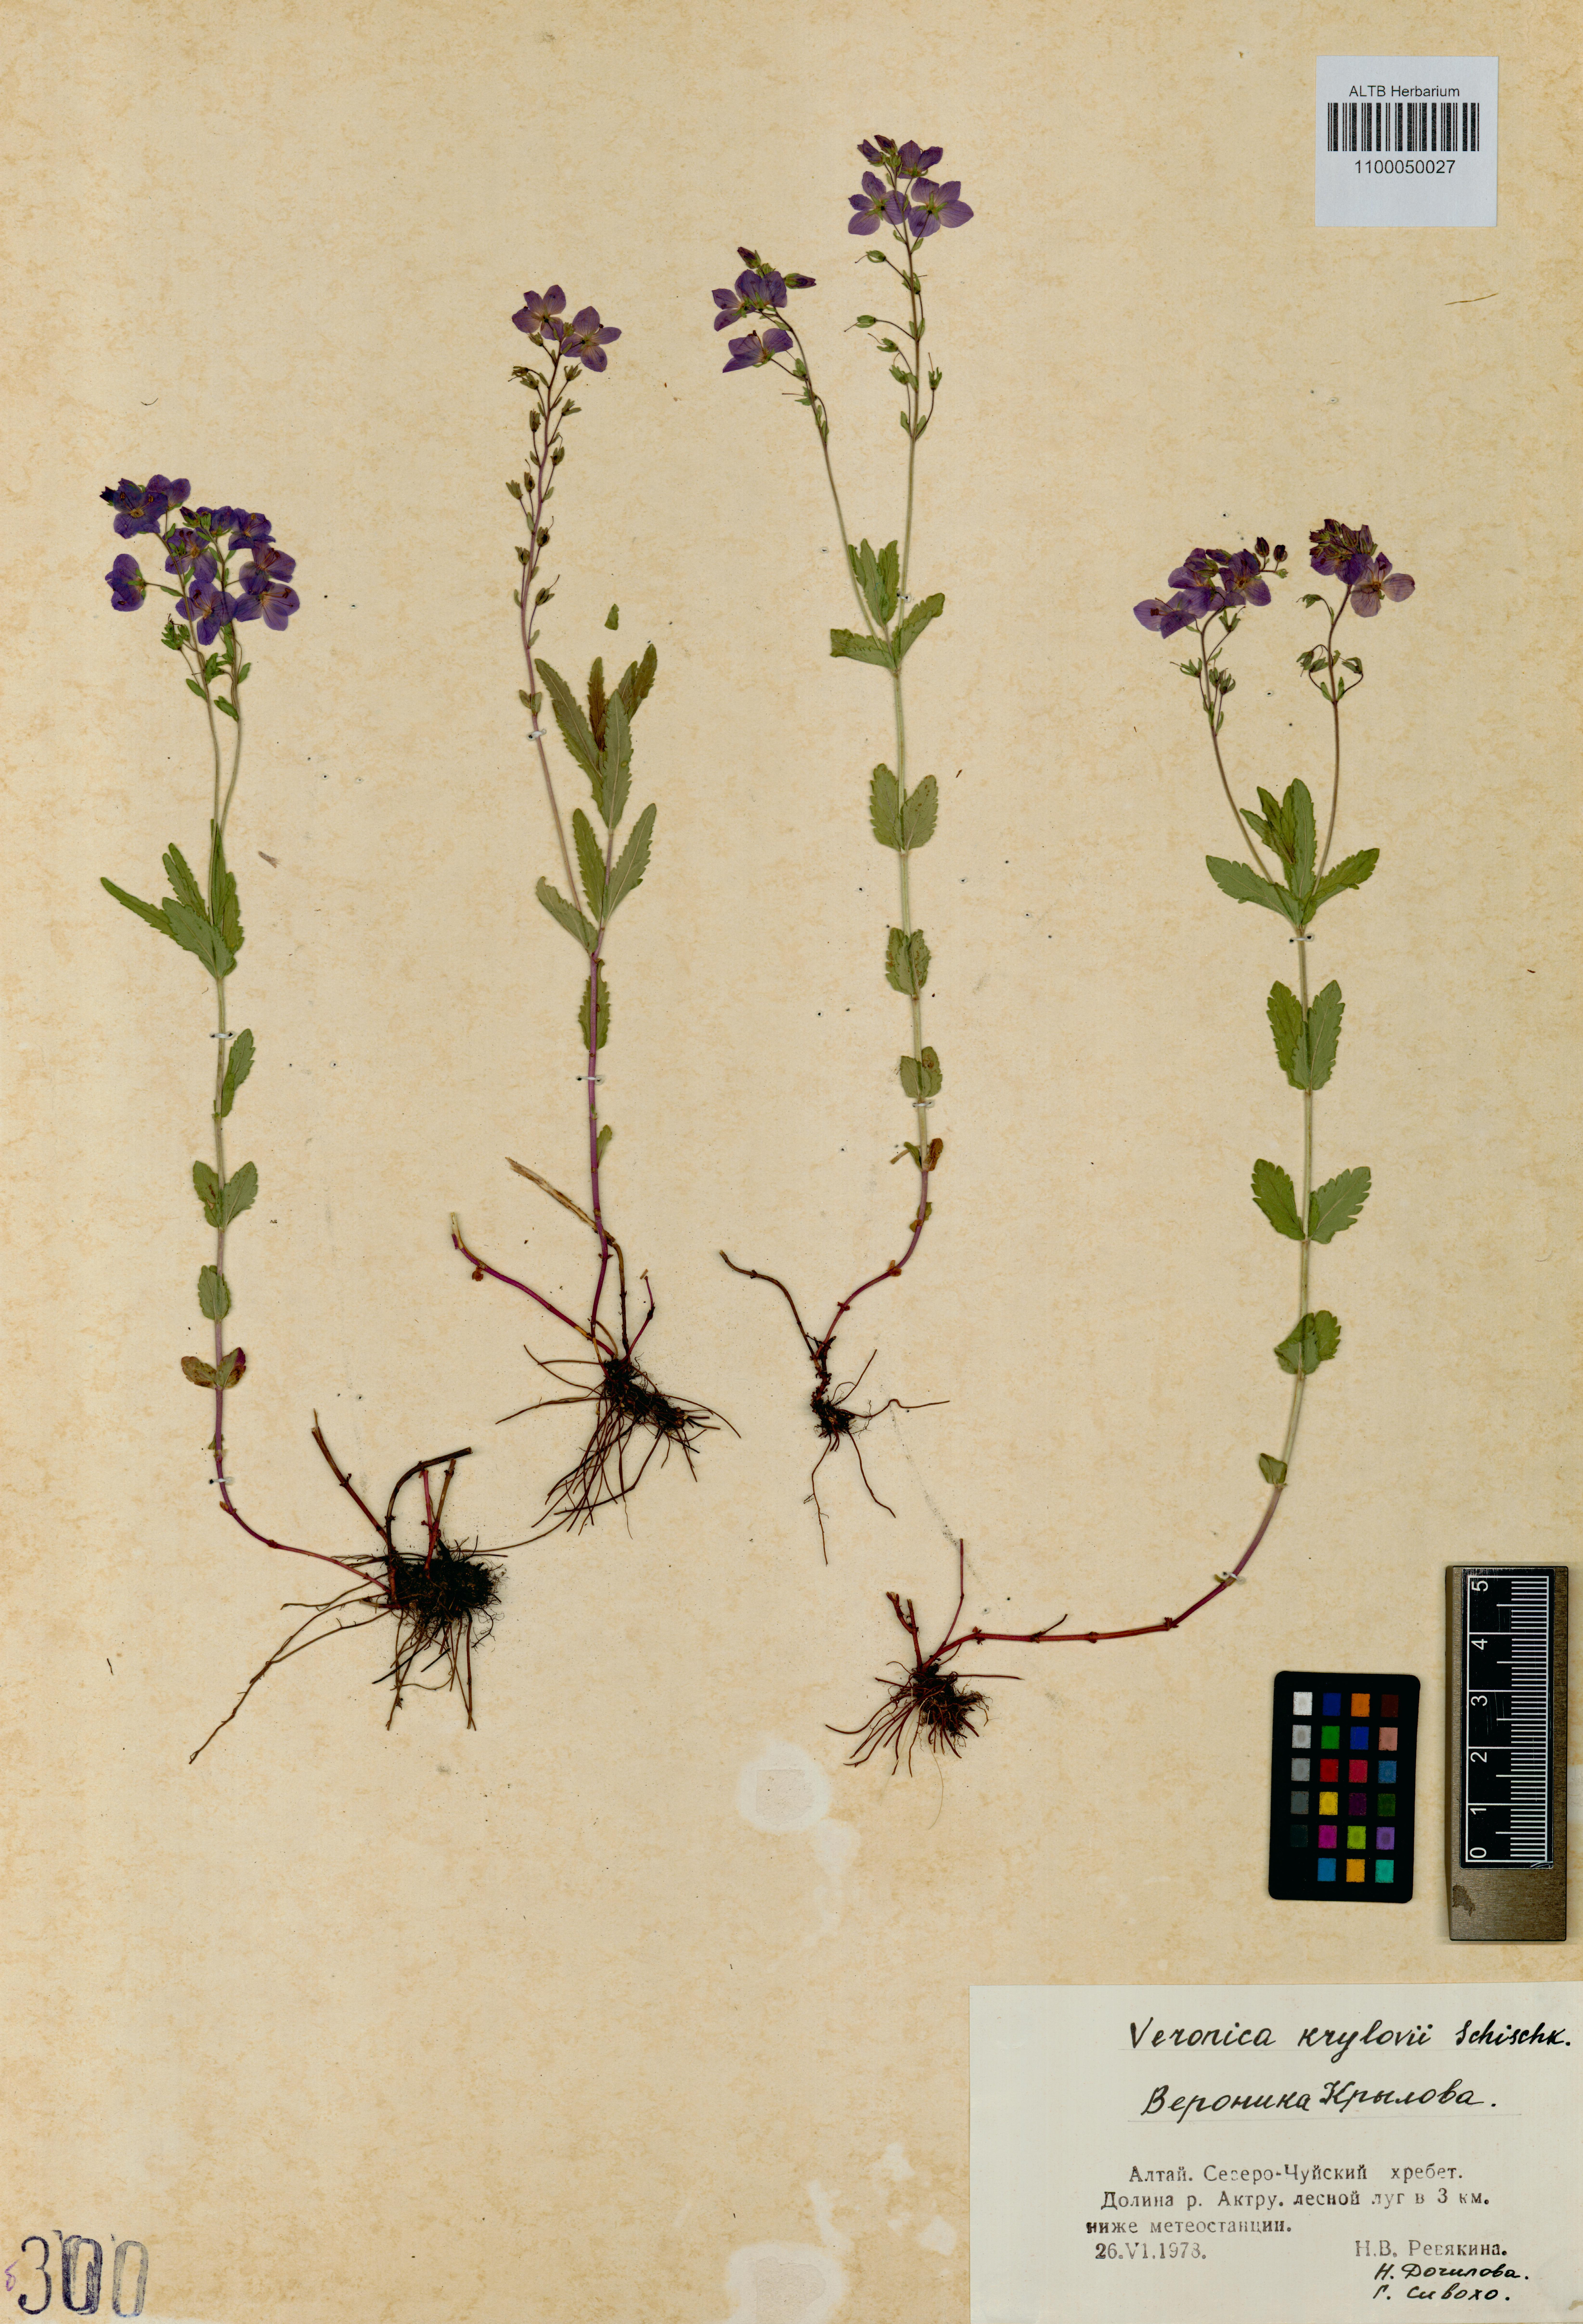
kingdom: Plantae
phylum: Tracheophyta
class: Magnoliopsida
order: Lamiales
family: Plantaginaceae
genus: Veronica
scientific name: Veronica krylovii
